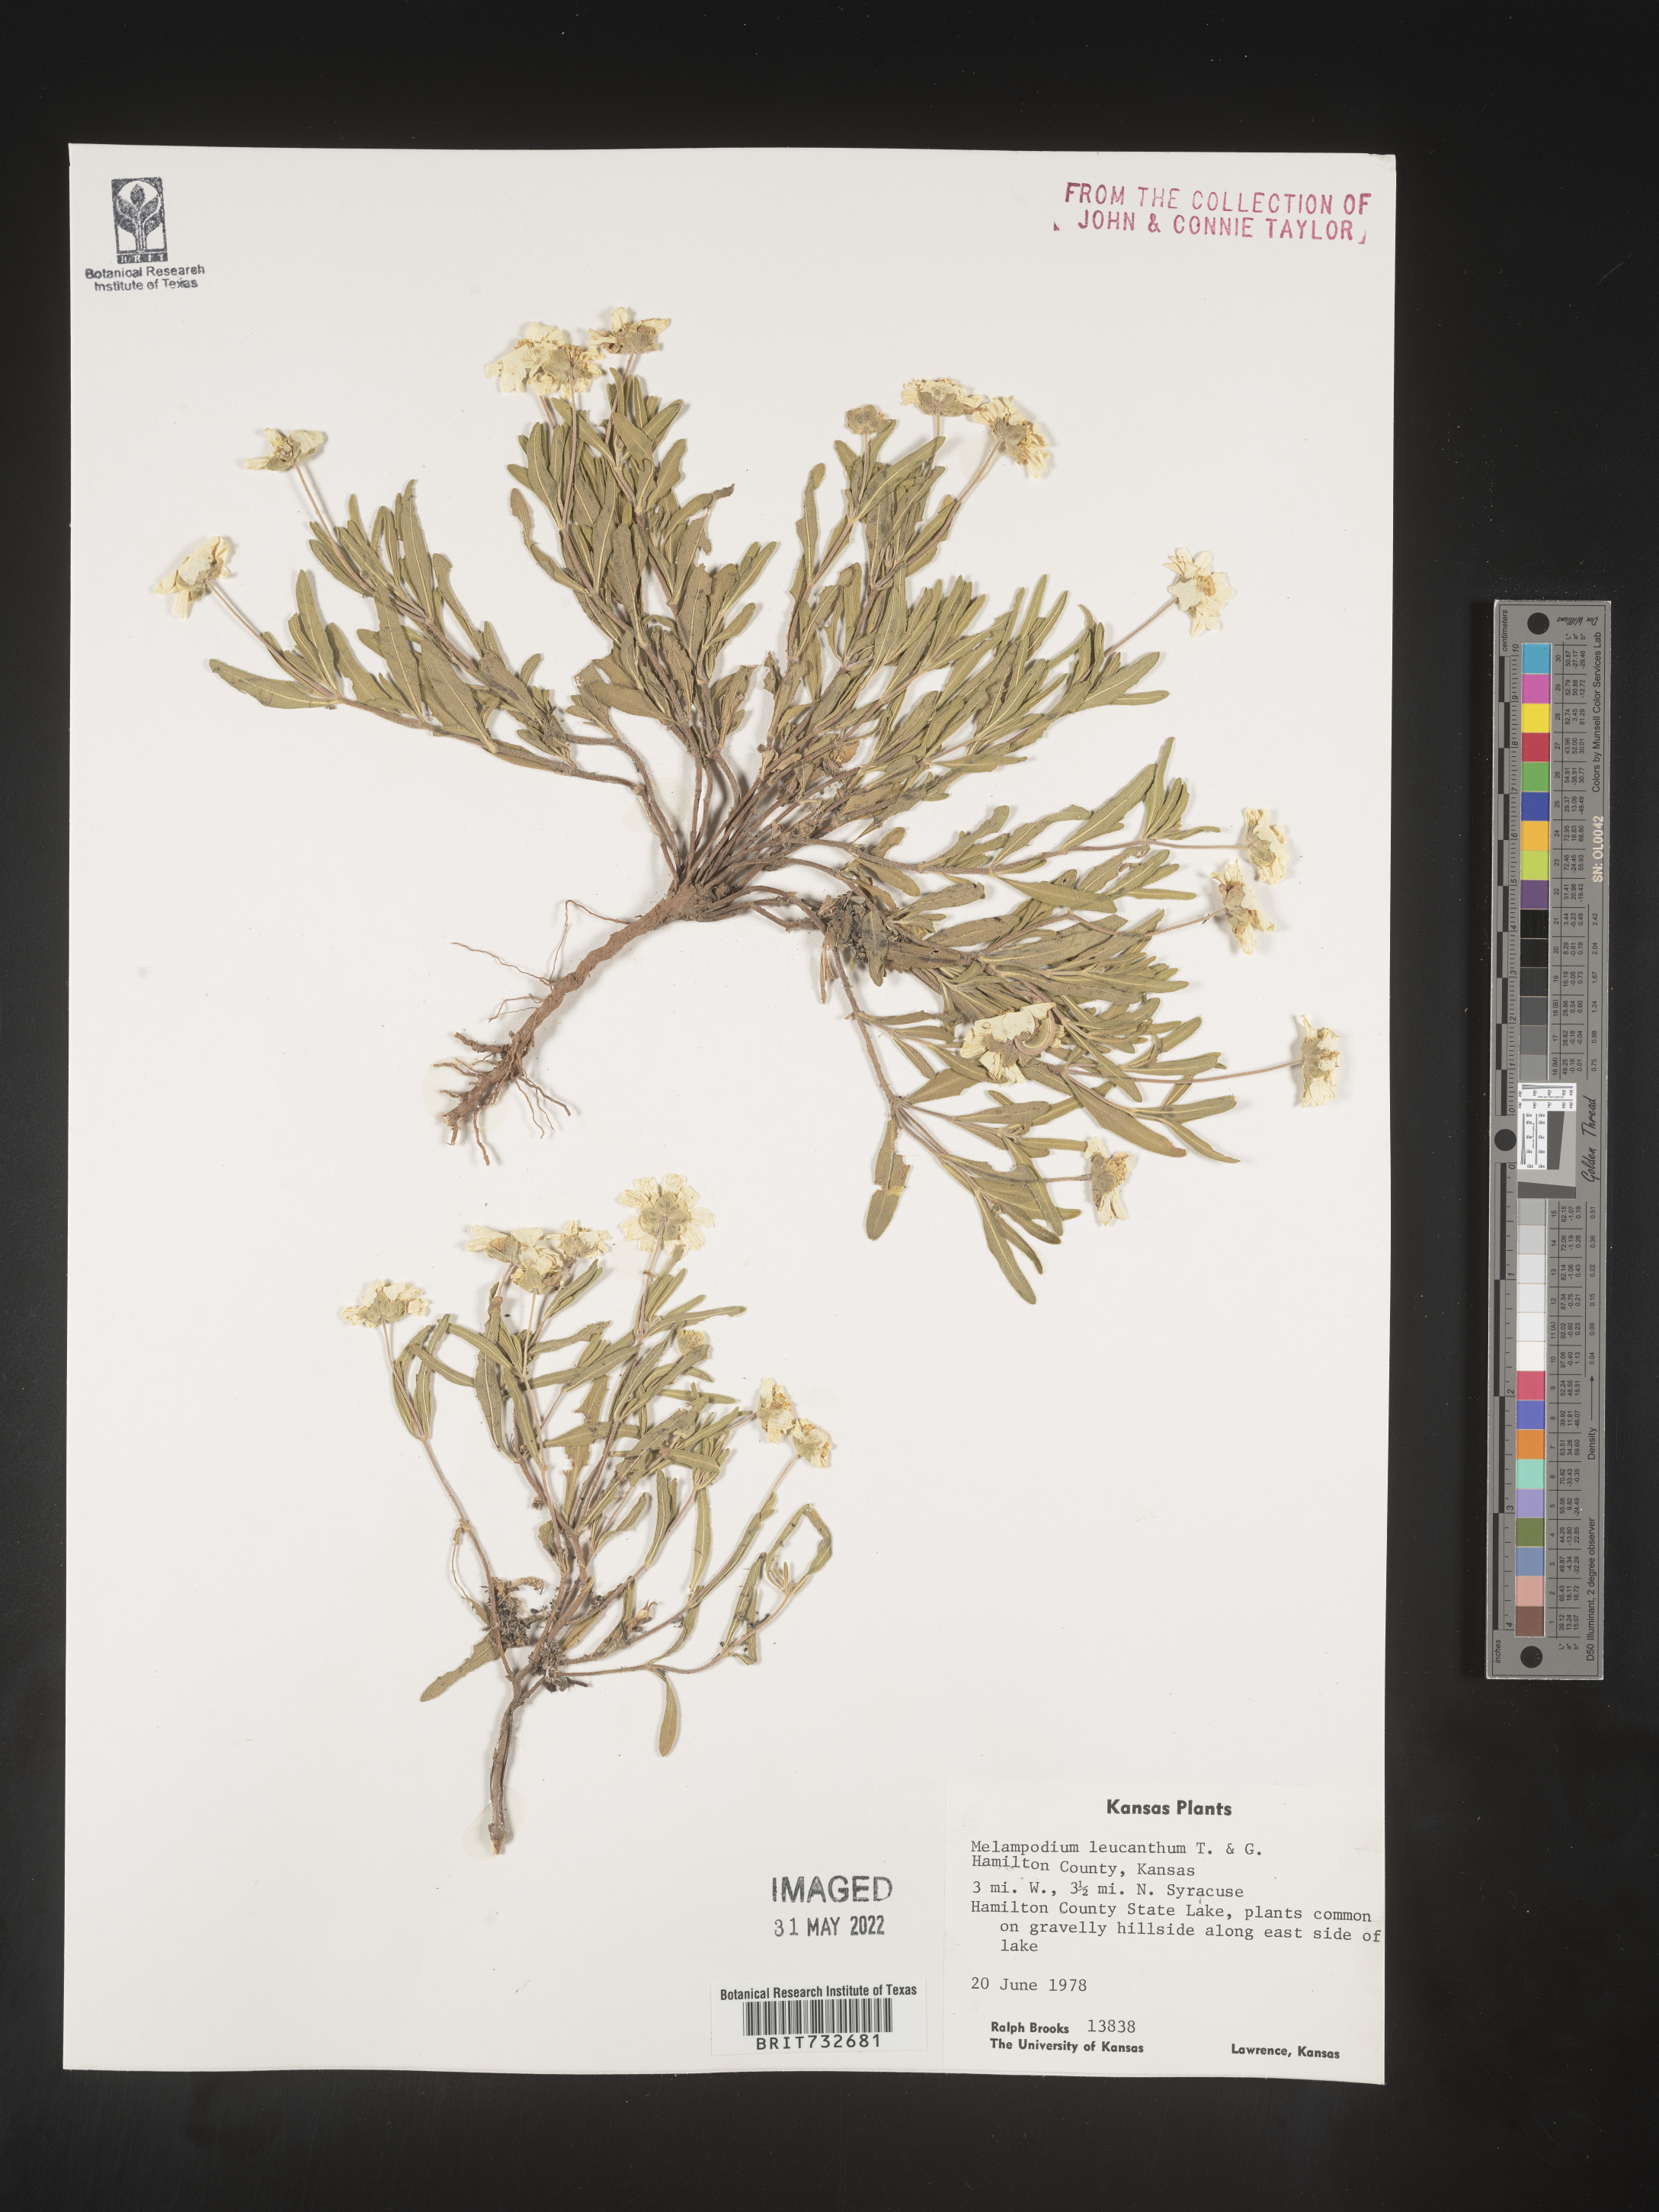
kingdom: Plantae
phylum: Tracheophyta
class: Magnoliopsida
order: Asterales
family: Asteraceae
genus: Melampodium
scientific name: Melampodium leucanthum
